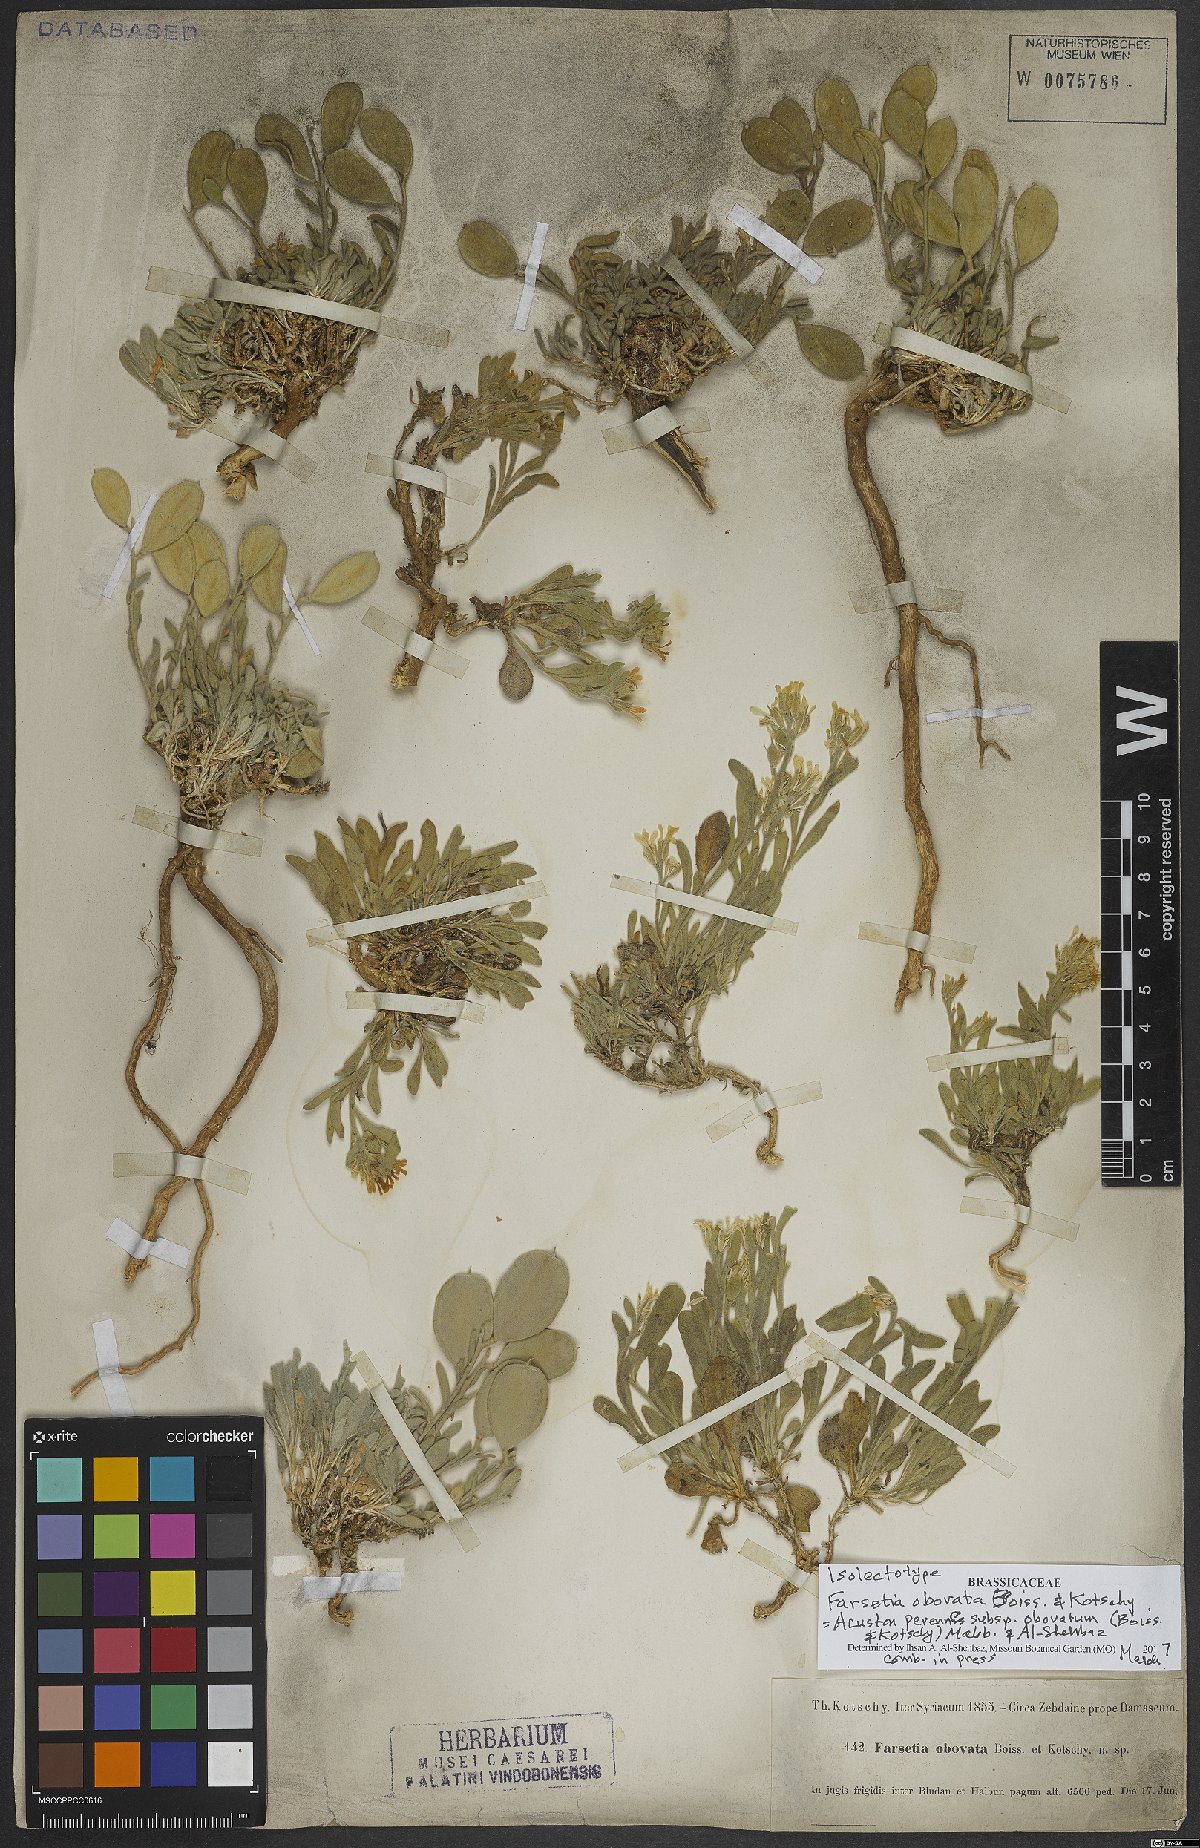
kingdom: Plantae
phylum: Tracheophyta
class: Magnoliopsida
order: Brassicales
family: Brassicaceae
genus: Acuston
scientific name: Acuston petalodes
